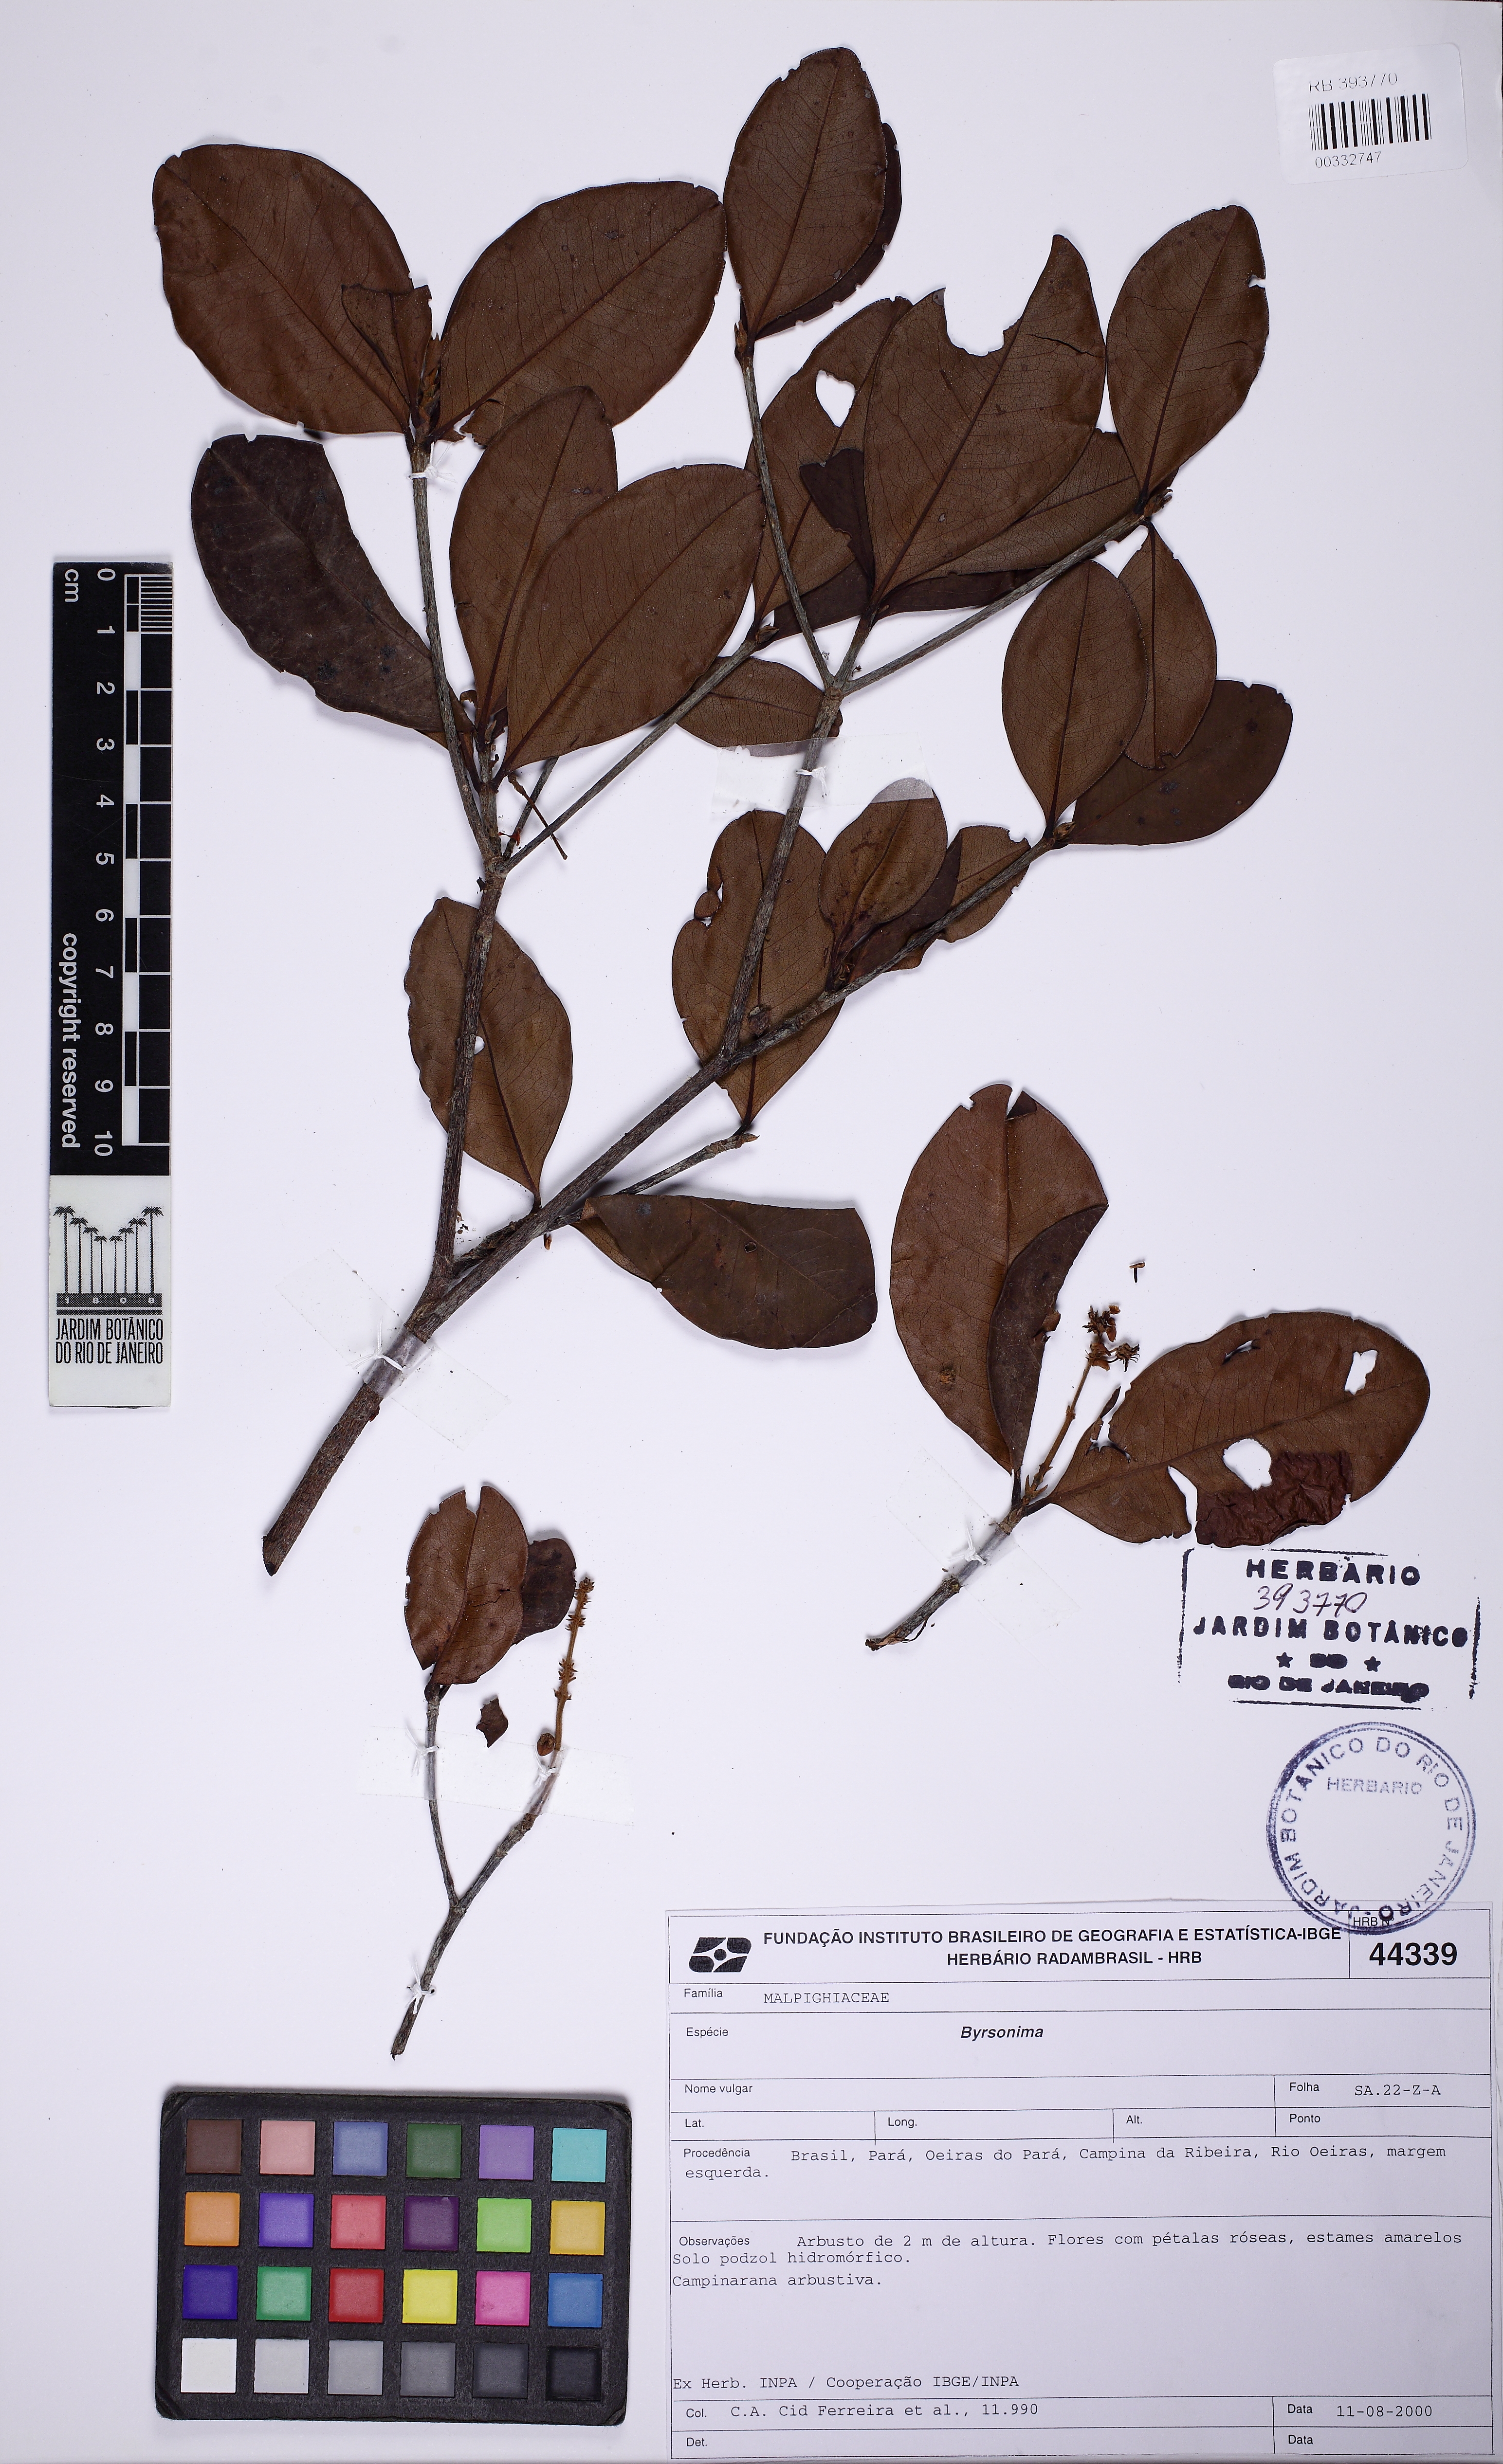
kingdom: Plantae
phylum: Tracheophyta
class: Magnoliopsida
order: Malpighiales
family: Malpighiaceae
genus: Byrsonima
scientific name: Byrsonima bumeliifolia
